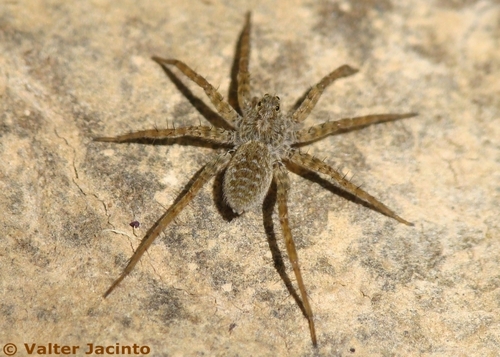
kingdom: Animalia
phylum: Arthropoda
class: Arachnida
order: Araneae
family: Lycosidae
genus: Pardosa
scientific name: Pardosa proxima
